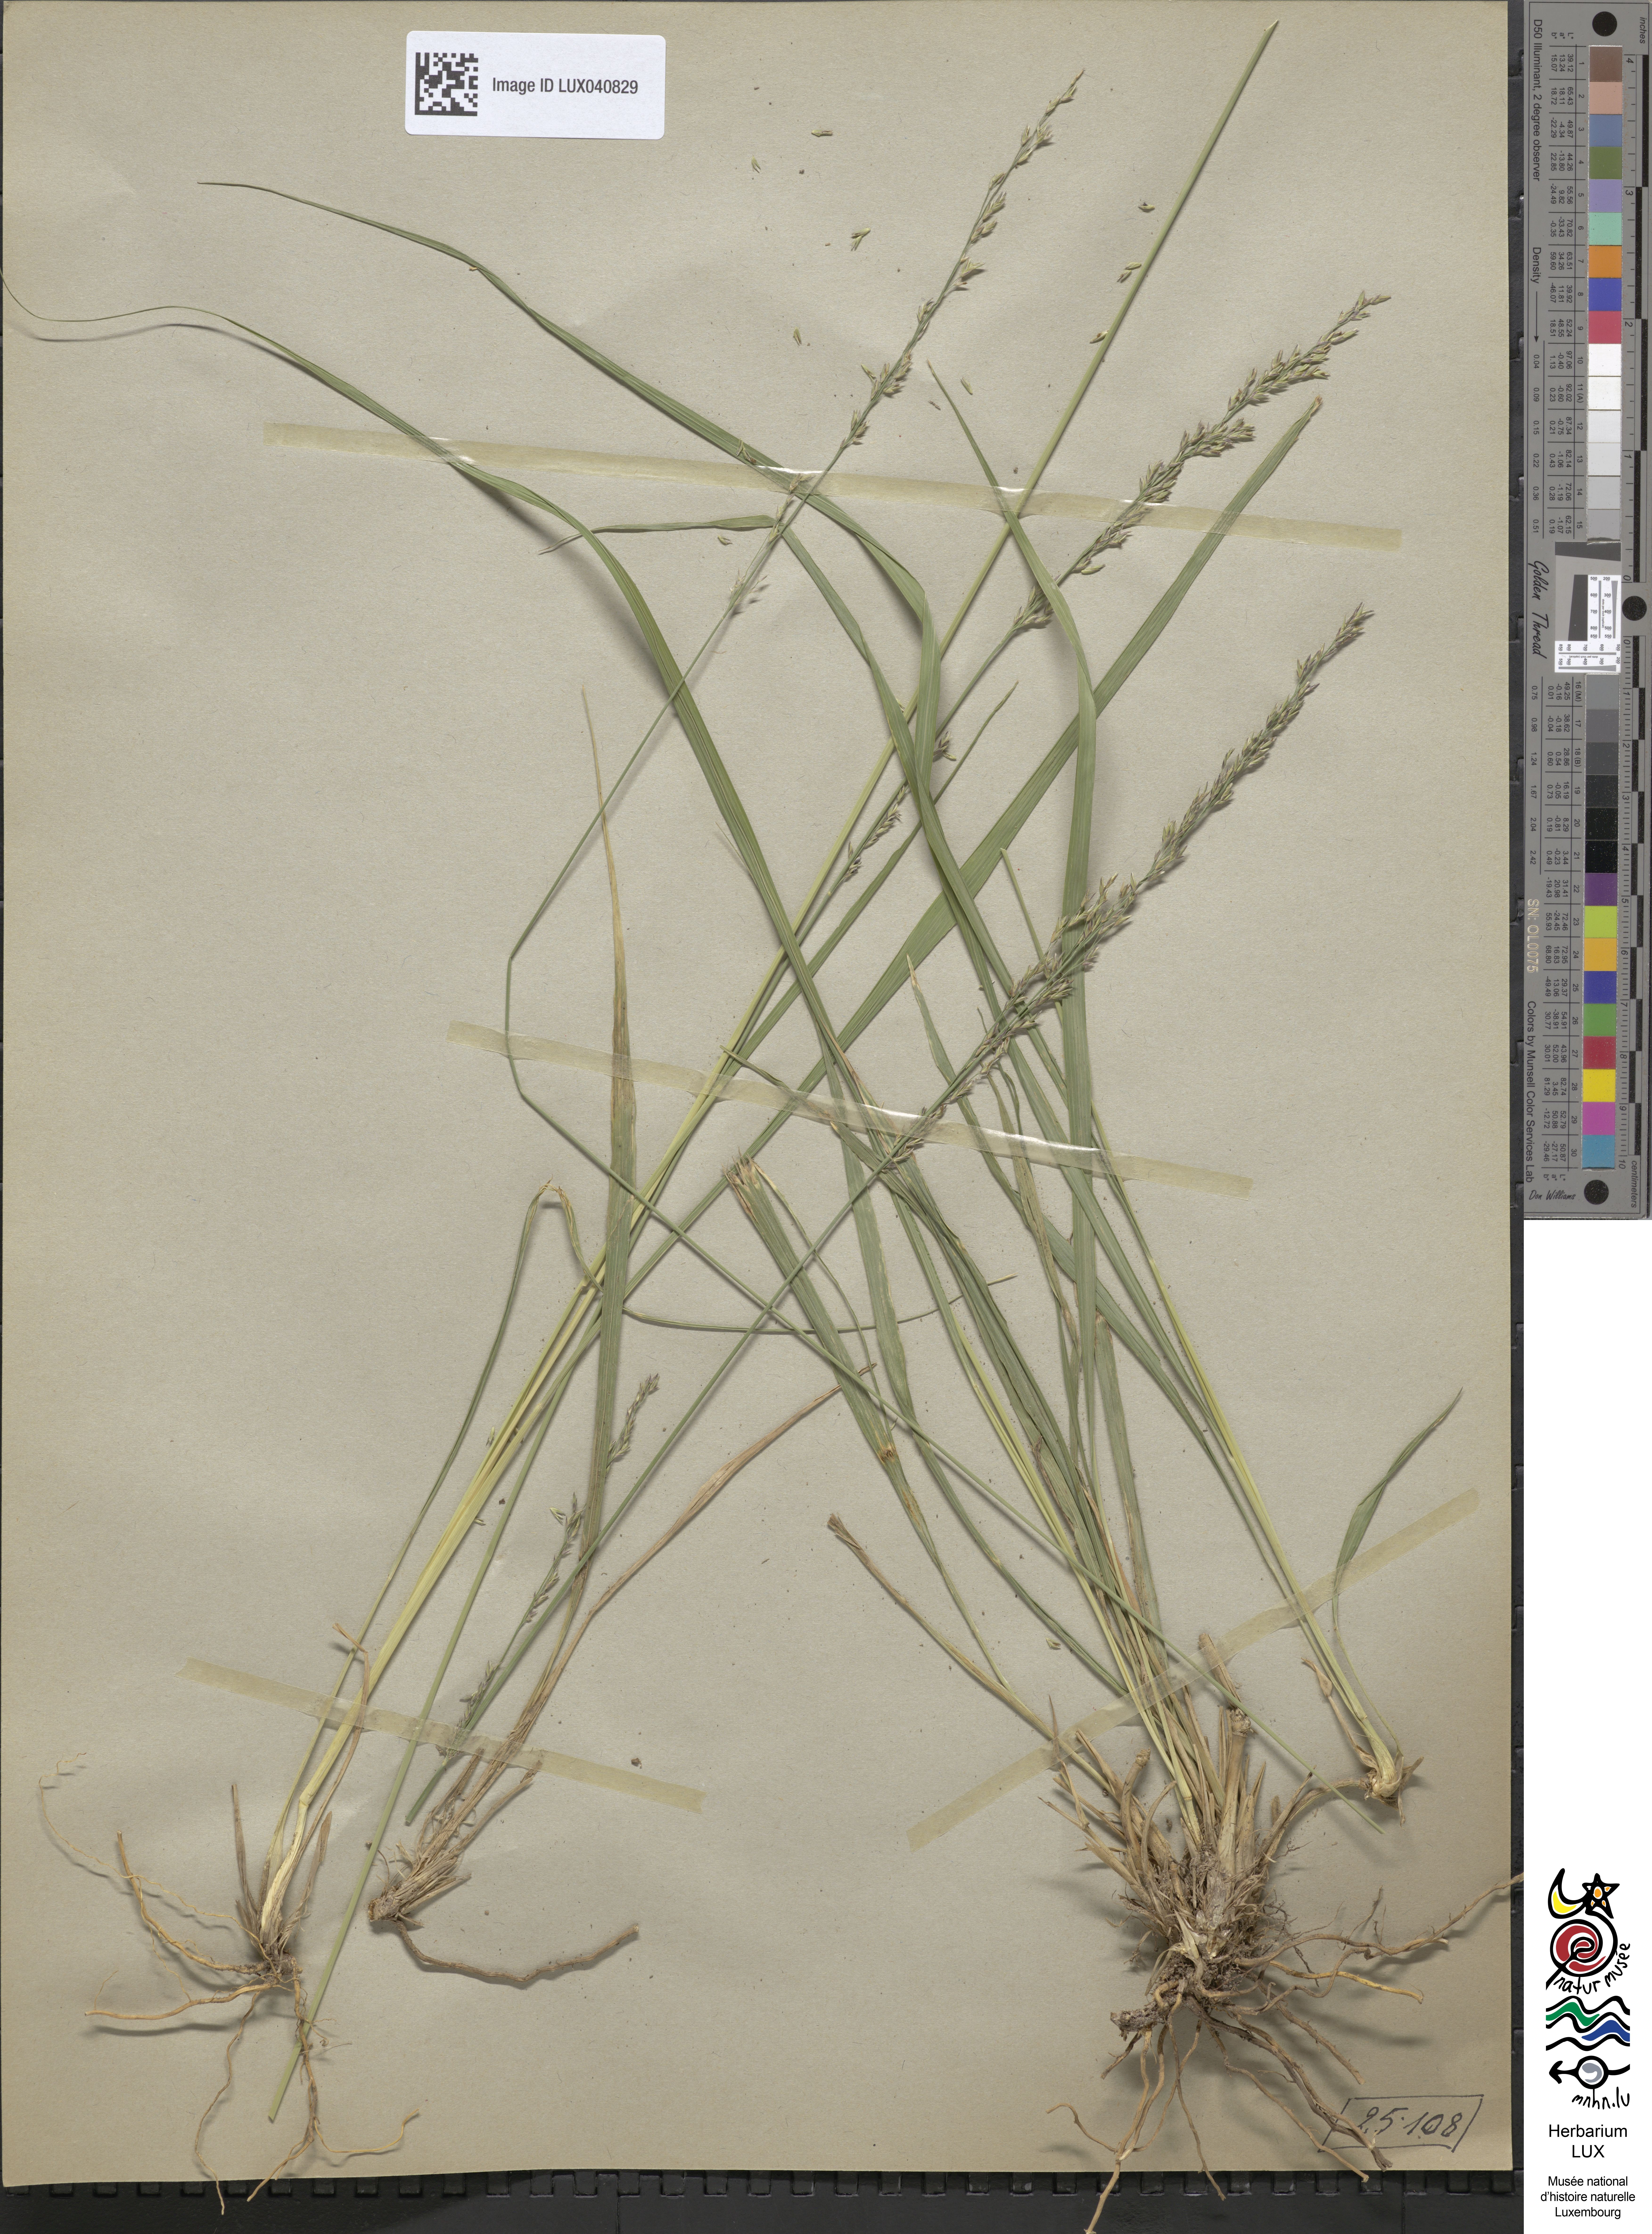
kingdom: Plantae
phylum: Tracheophyta
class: Liliopsida
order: Poales
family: Poaceae
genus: Molinia
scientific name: Molinia caerulea
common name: Purple moor-grass
